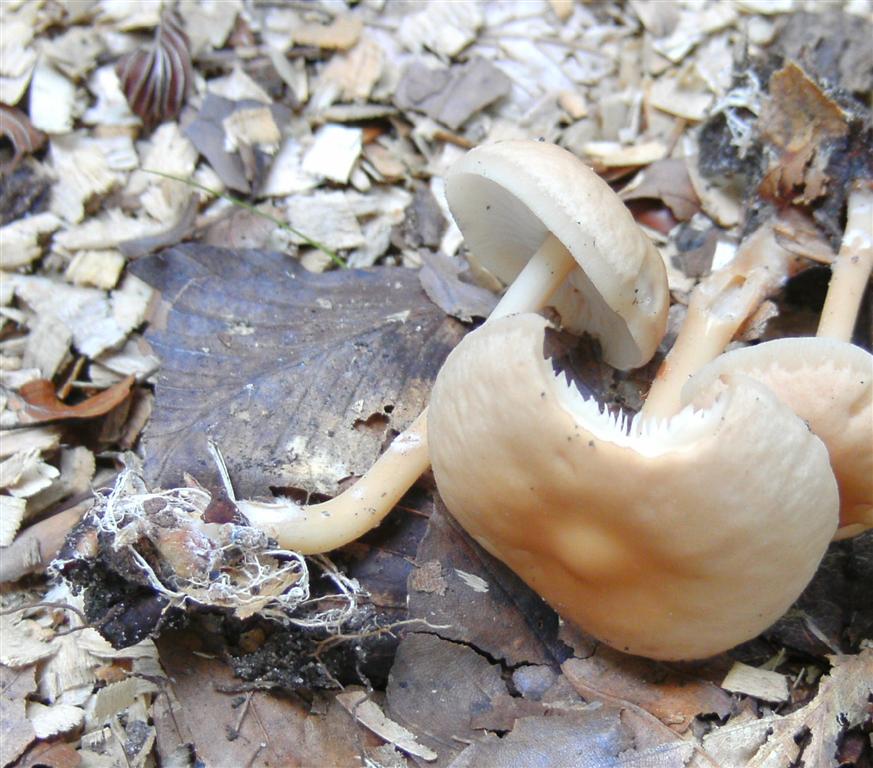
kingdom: Fungi
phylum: Basidiomycota
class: Agaricomycetes
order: Agaricales
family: Omphalotaceae
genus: Gymnopus
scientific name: Gymnopus dryophilus
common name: løv-fladhat
